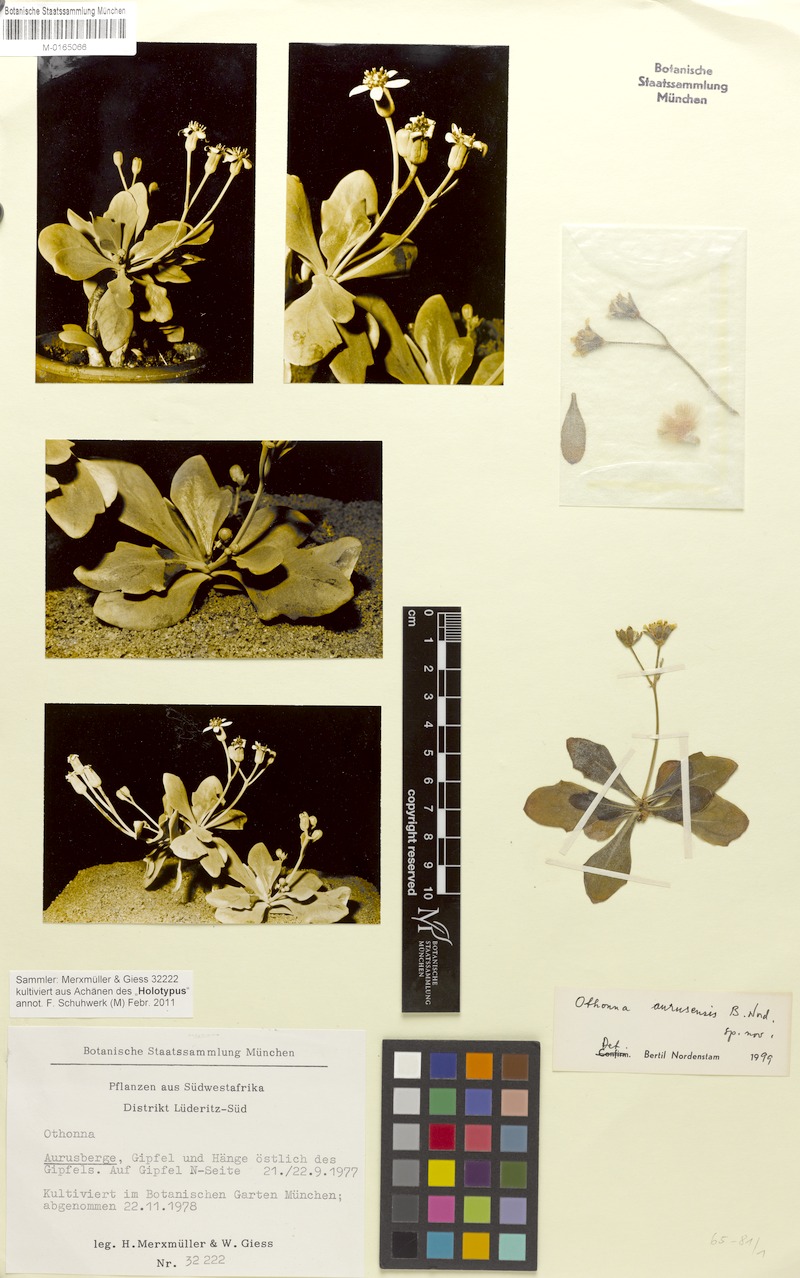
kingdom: Plantae
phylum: Tracheophyta
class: Magnoliopsida
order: Asterales
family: Asteraceae
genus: Othonna
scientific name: Othonna
